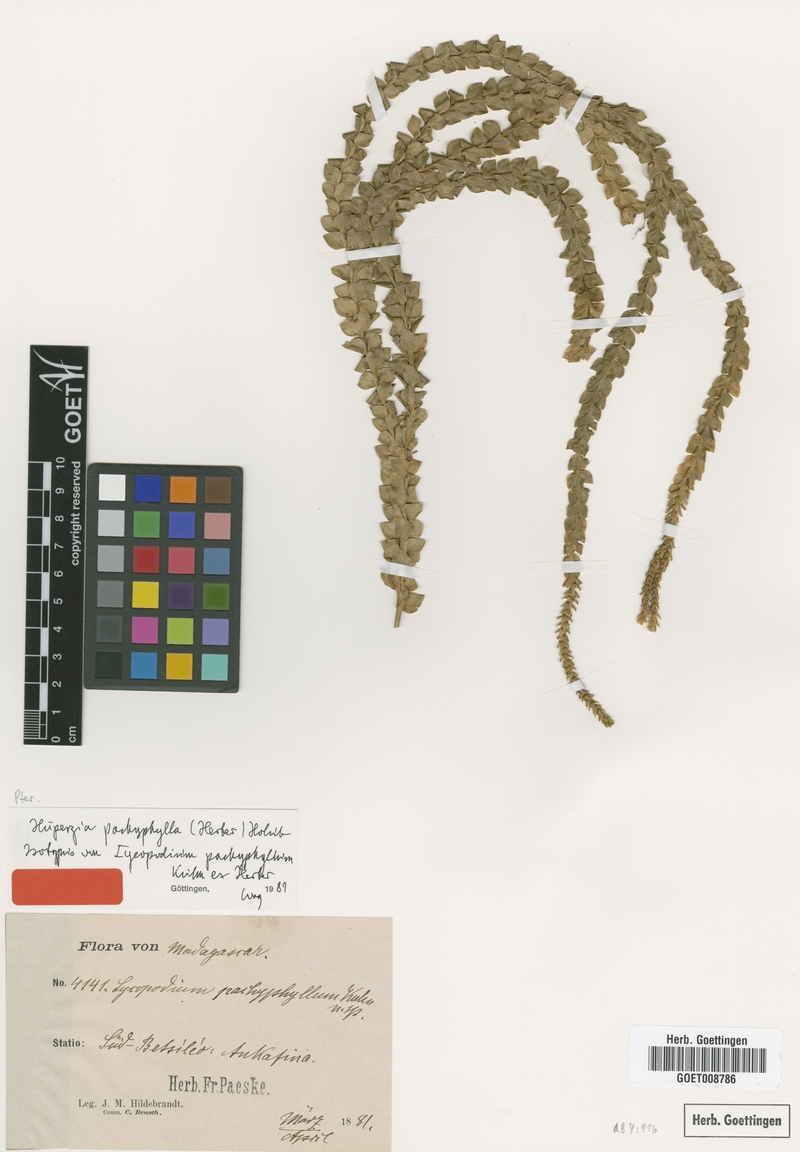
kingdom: Plantae
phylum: Tracheophyta
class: Lycopodiopsida
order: Lycopodiales
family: Lycopodiaceae
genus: Phlegmariurus
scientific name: Phlegmariurus pachyphyllus
